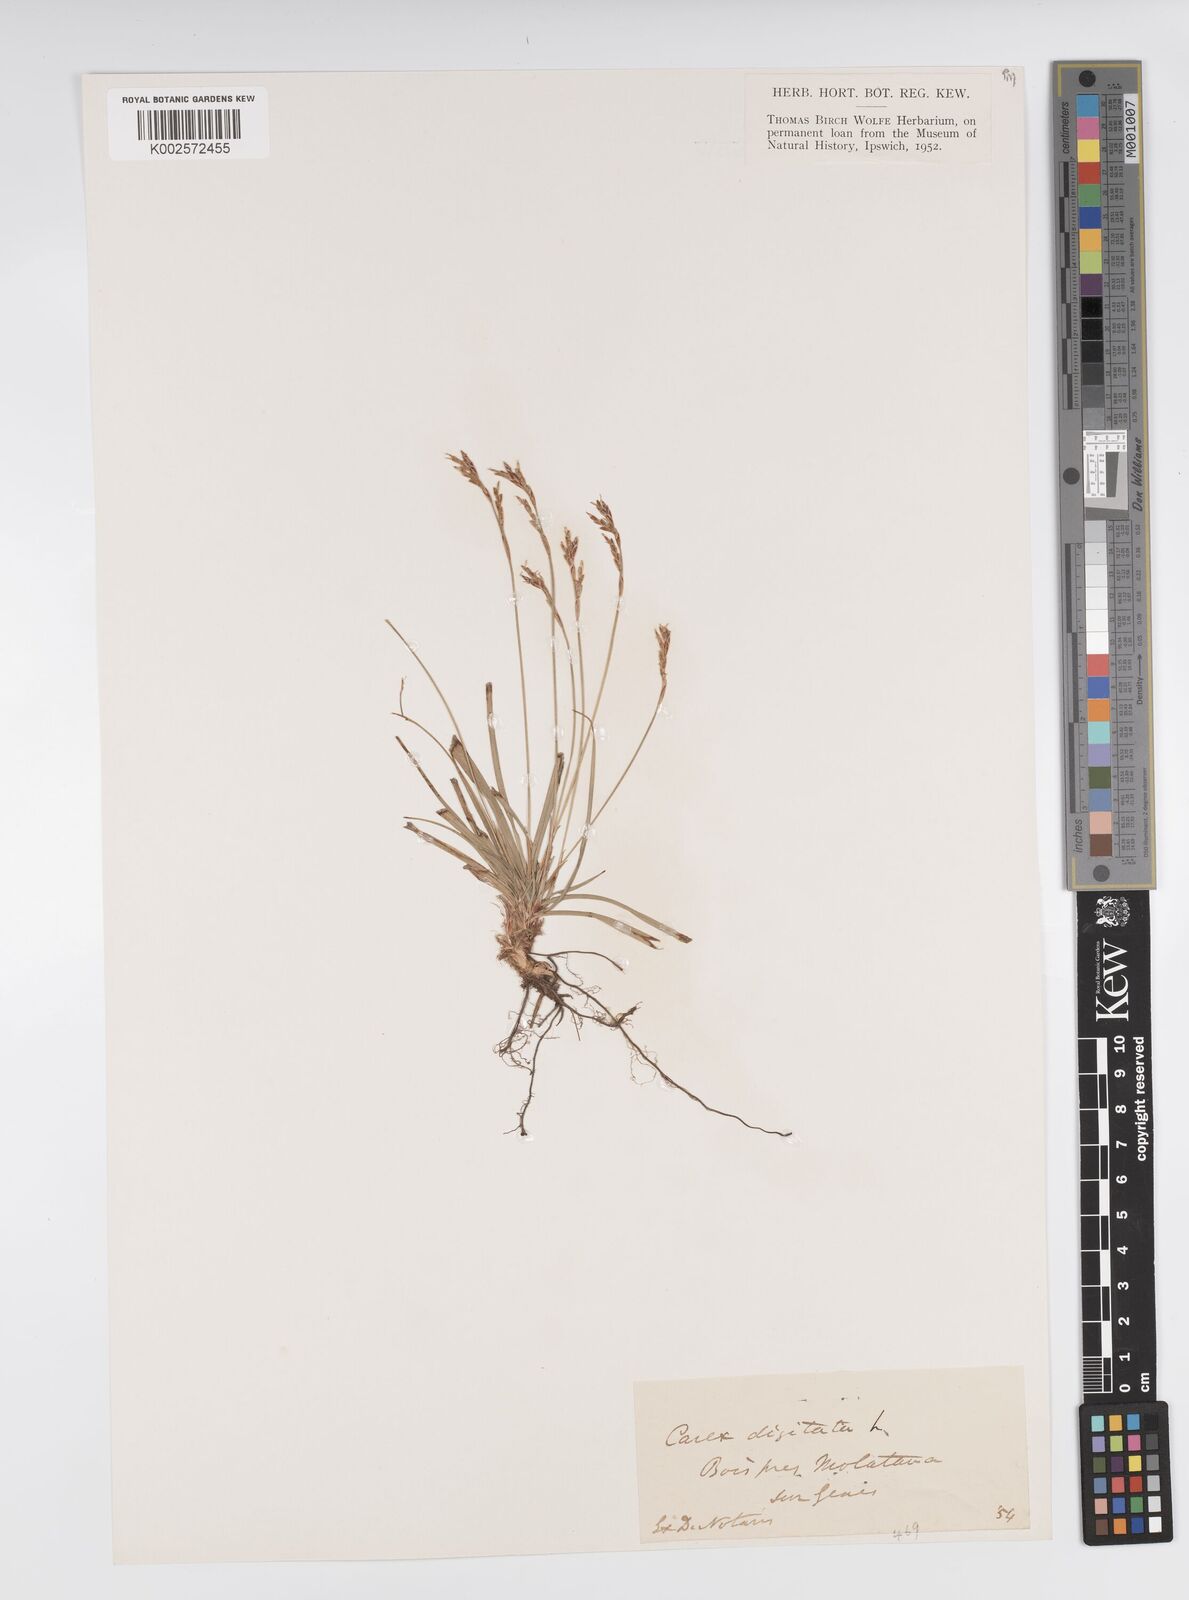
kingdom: Plantae
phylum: Tracheophyta
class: Liliopsida
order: Poales
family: Cyperaceae
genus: Carex
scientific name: Carex digitata
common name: Fingered sedge
